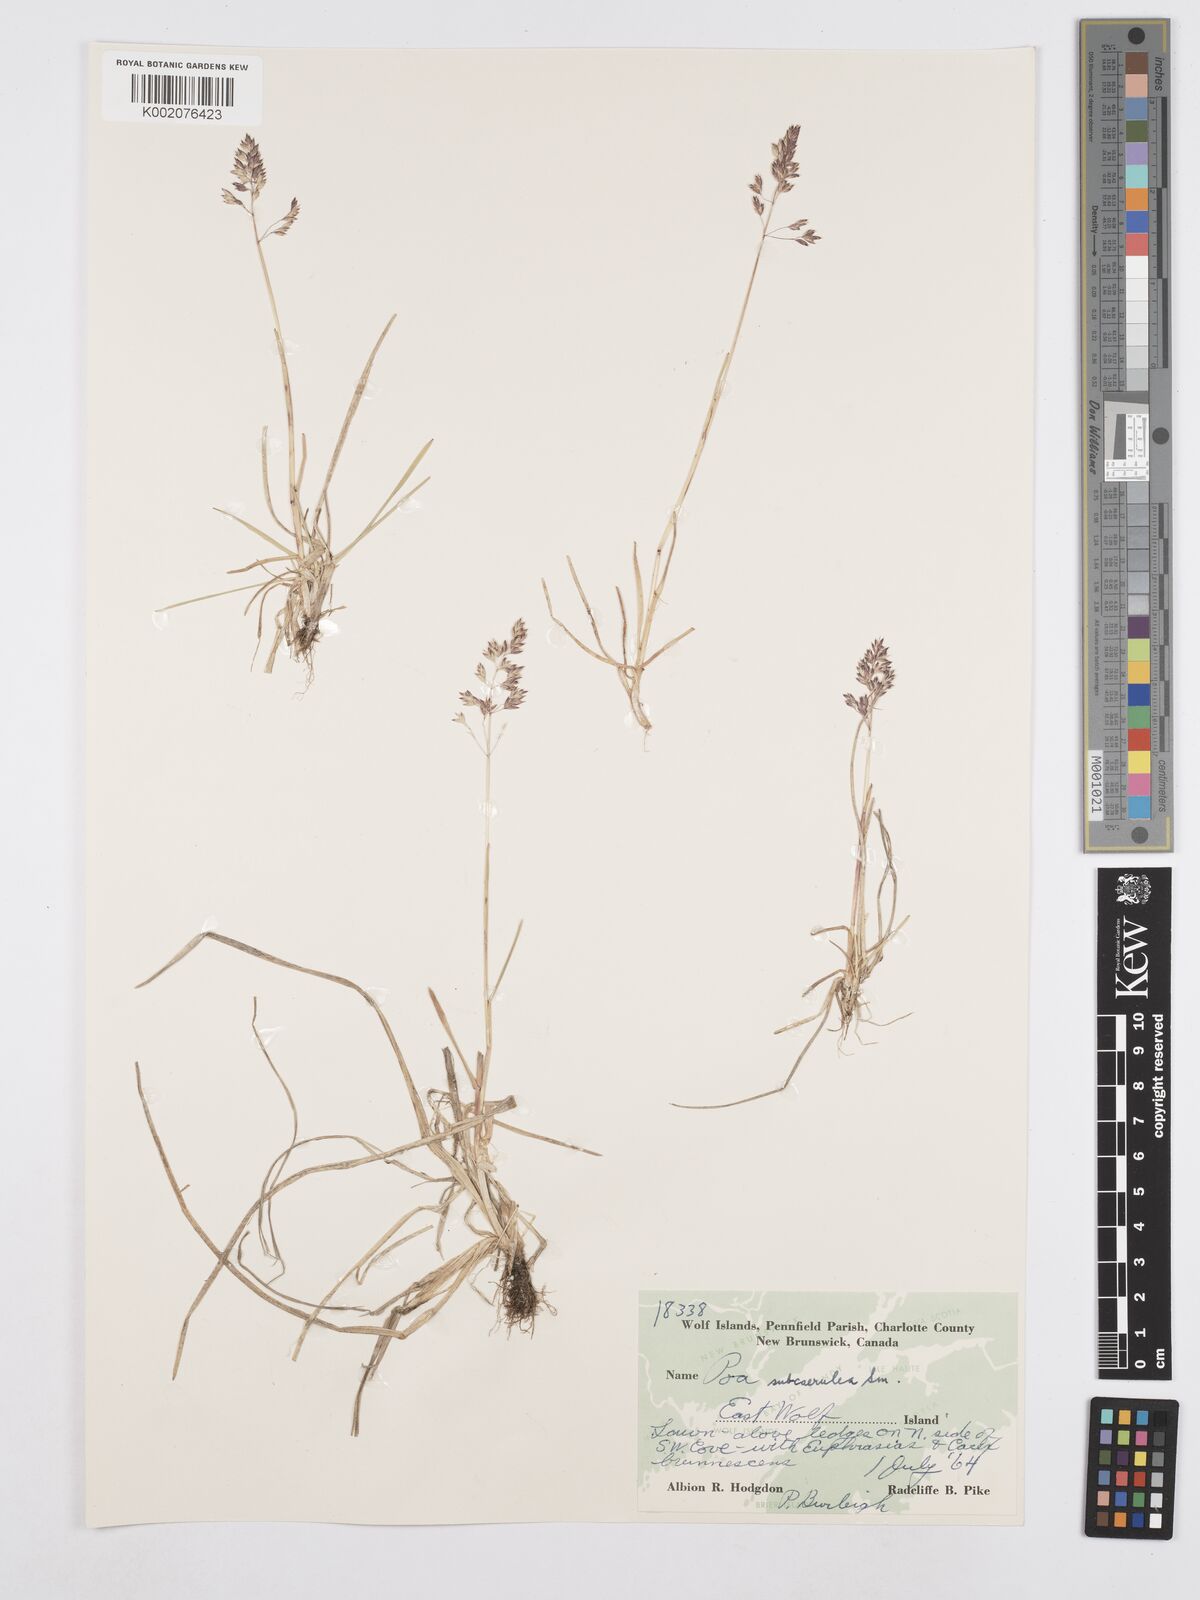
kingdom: Plantae
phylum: Tracheophyta
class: Liliopsida
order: Poales
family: Poaceae
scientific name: Poaceae
